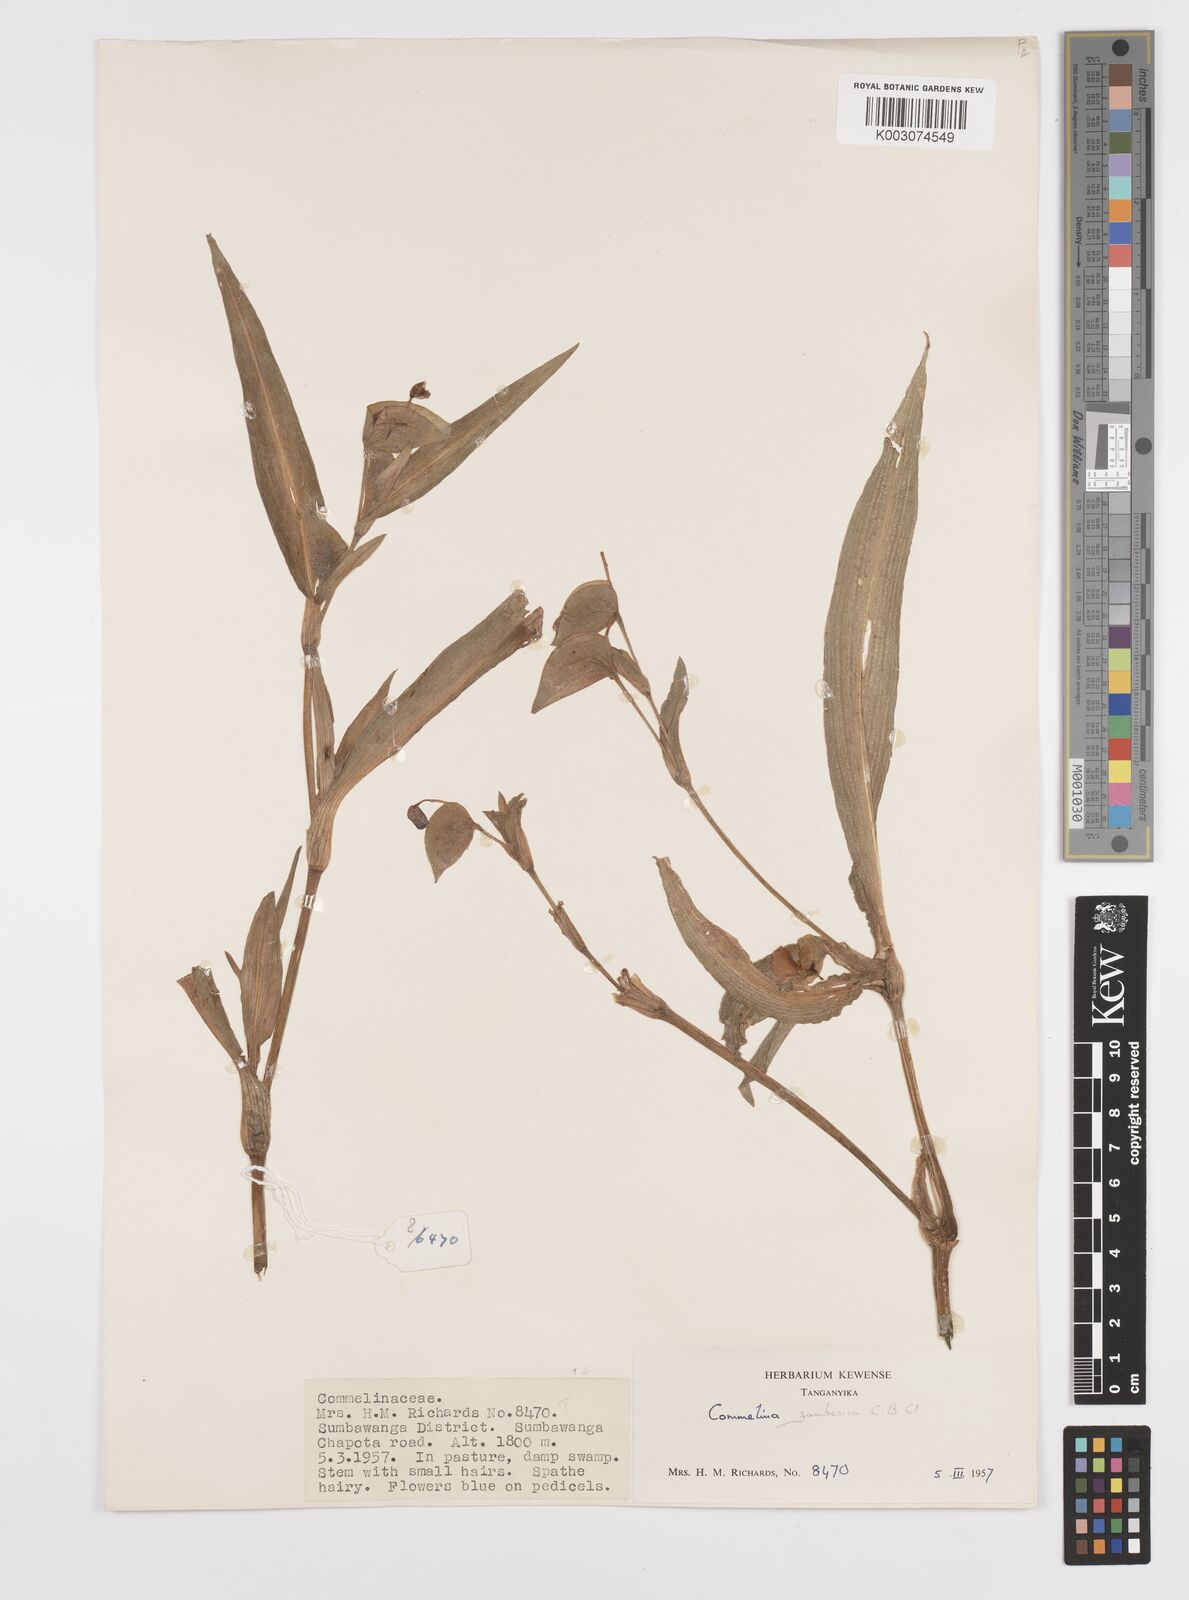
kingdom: Plantae
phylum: Tracheophyta
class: Liliopsida
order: Commelinales
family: Commelinaceae
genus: Commelina
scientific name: Commelina zambesica
